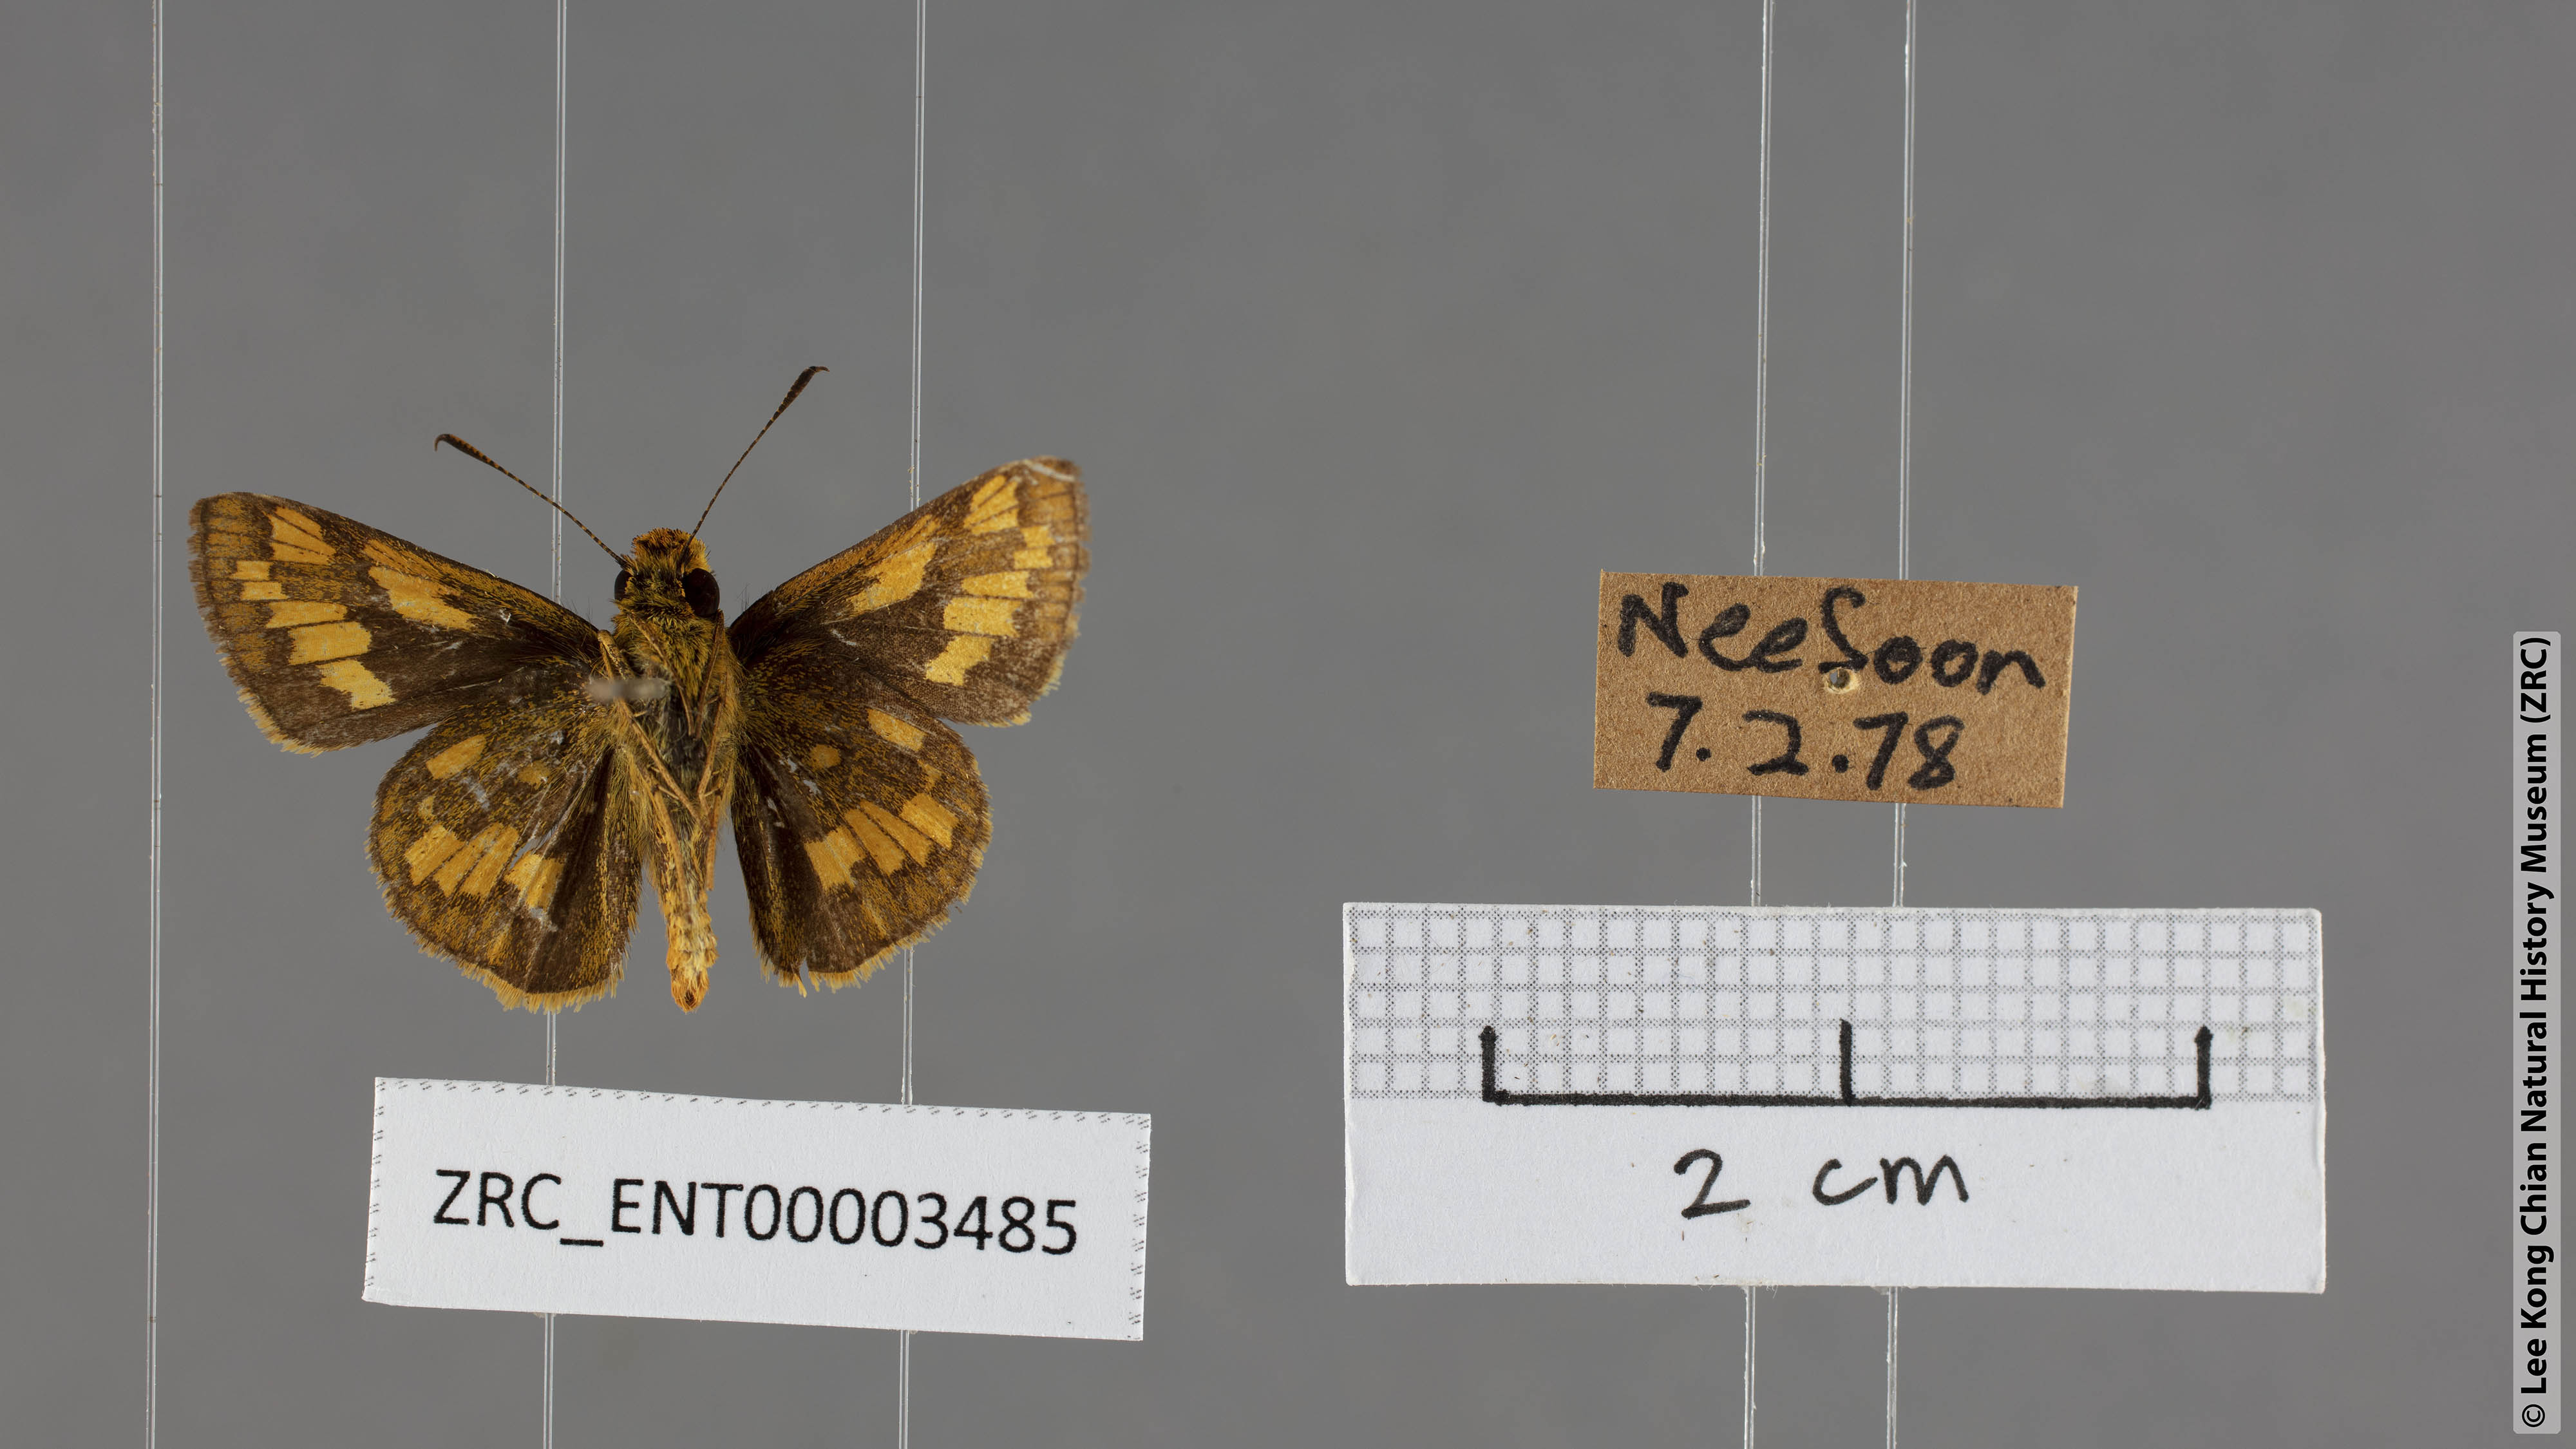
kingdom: Animalia
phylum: Arthropoda
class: Insecta
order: Lepidoptera
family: Hesperiidae
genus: Potanthus
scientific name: Potanthus omaha
